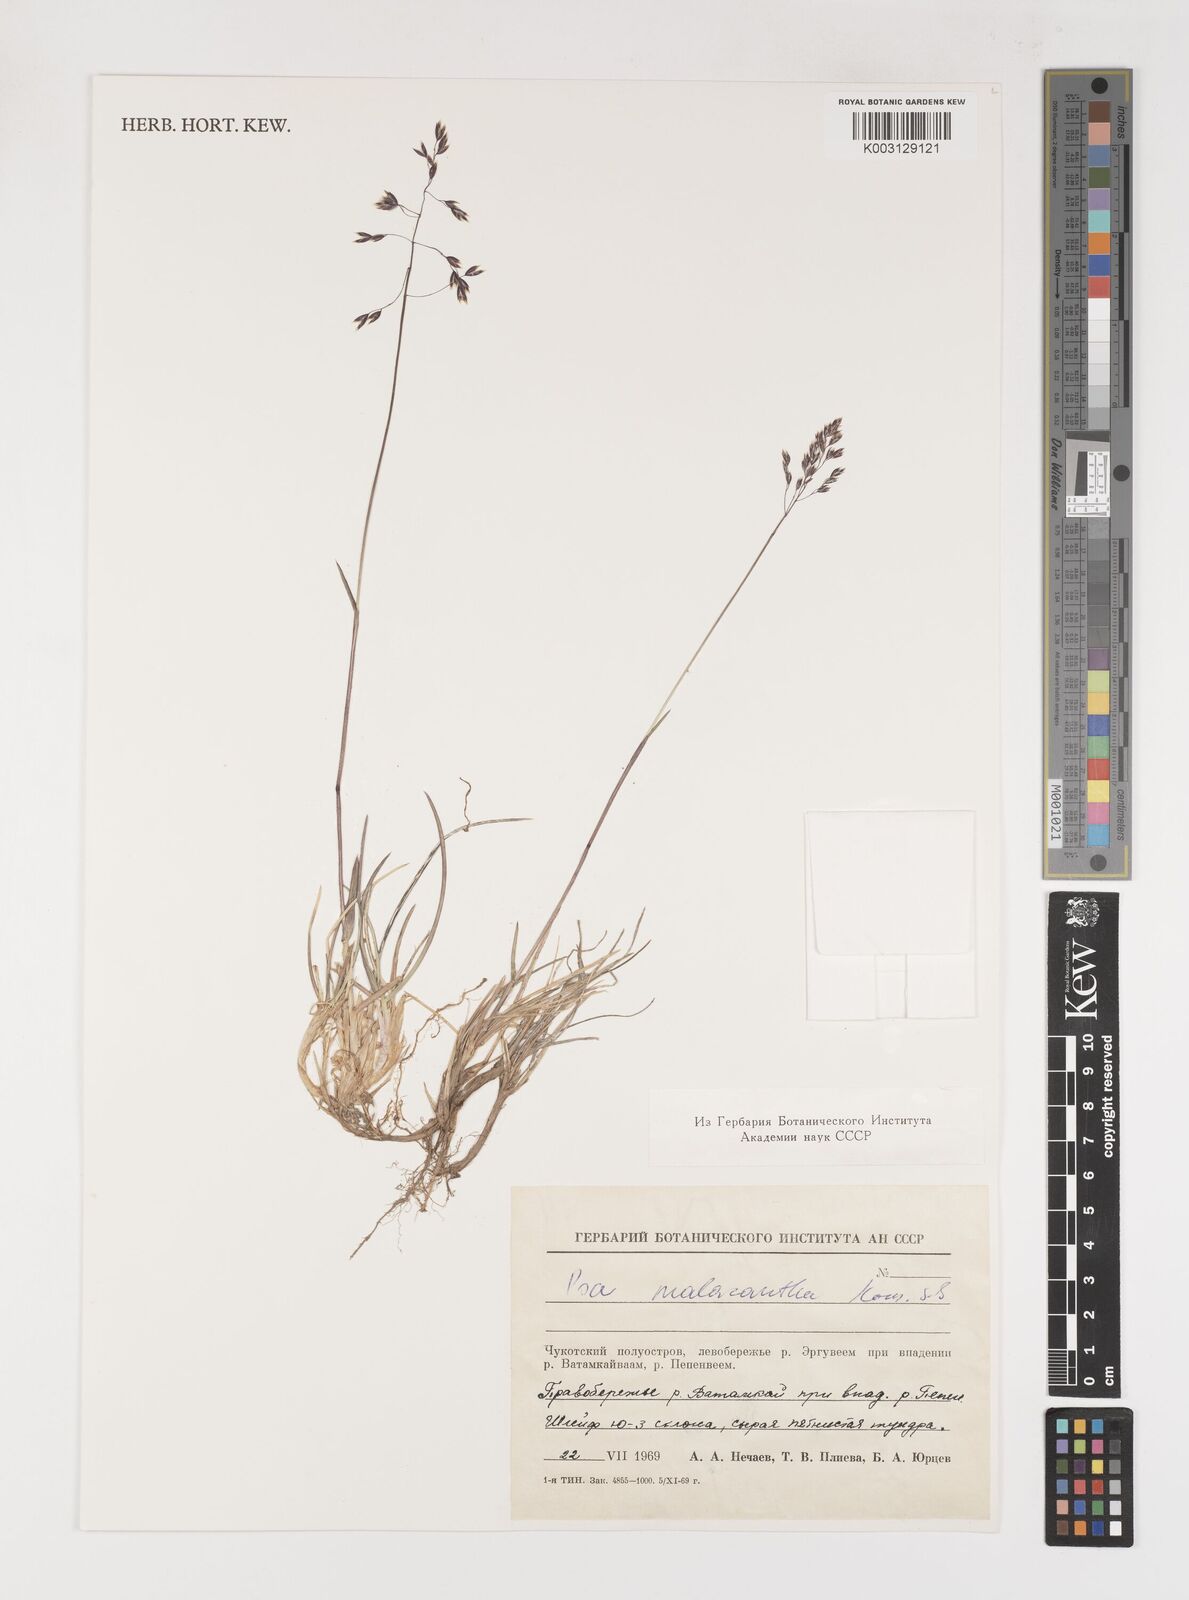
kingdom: Plantae
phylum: Tracheophyta
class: Liliopsida
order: Poales
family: Poaceae
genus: Poa
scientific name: Poa arctica
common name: Arctic bluegrass
